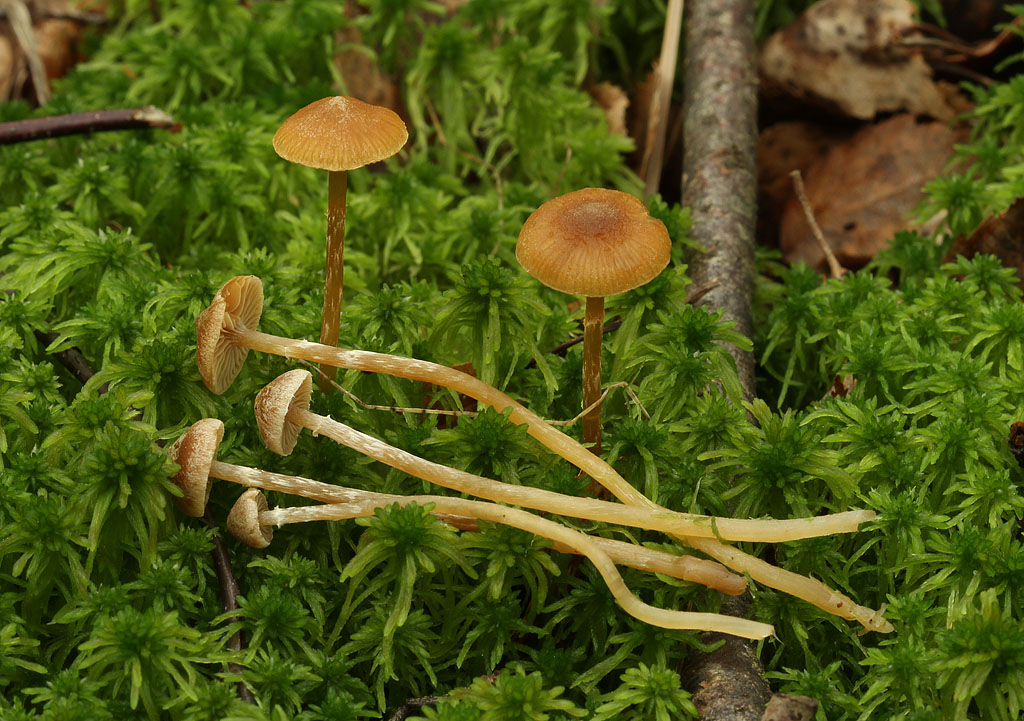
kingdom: Fungi
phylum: Basidiomycota
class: Agaricomycetes
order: Agaricales
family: Hymenogastraceae
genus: Galerina
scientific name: Galerina paludosa
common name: mose-hjelmhat
